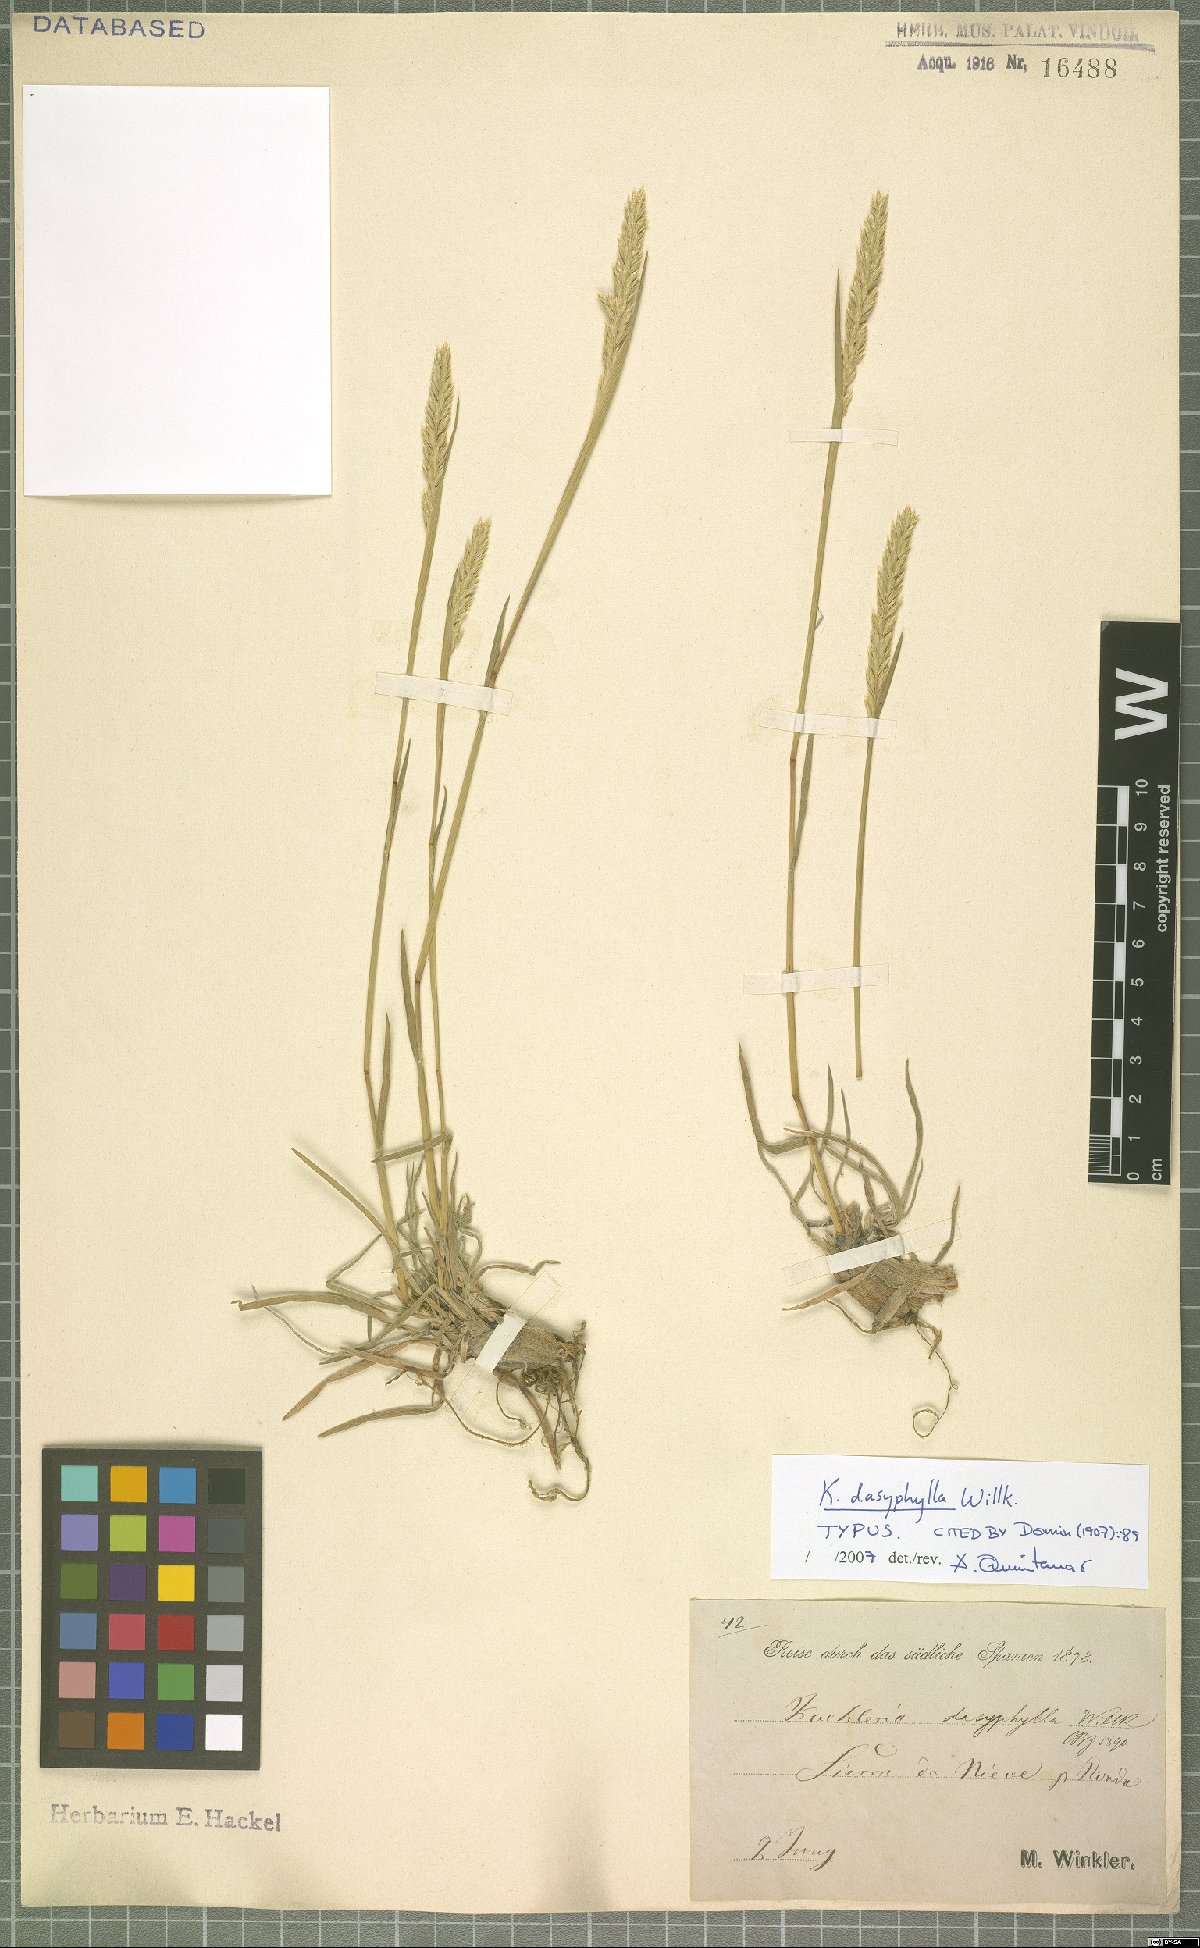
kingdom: Plantae
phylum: Tracheophyta
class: Liliopsida
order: Poales
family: Poaceae
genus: Koeleria
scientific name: Koeleria splendens
